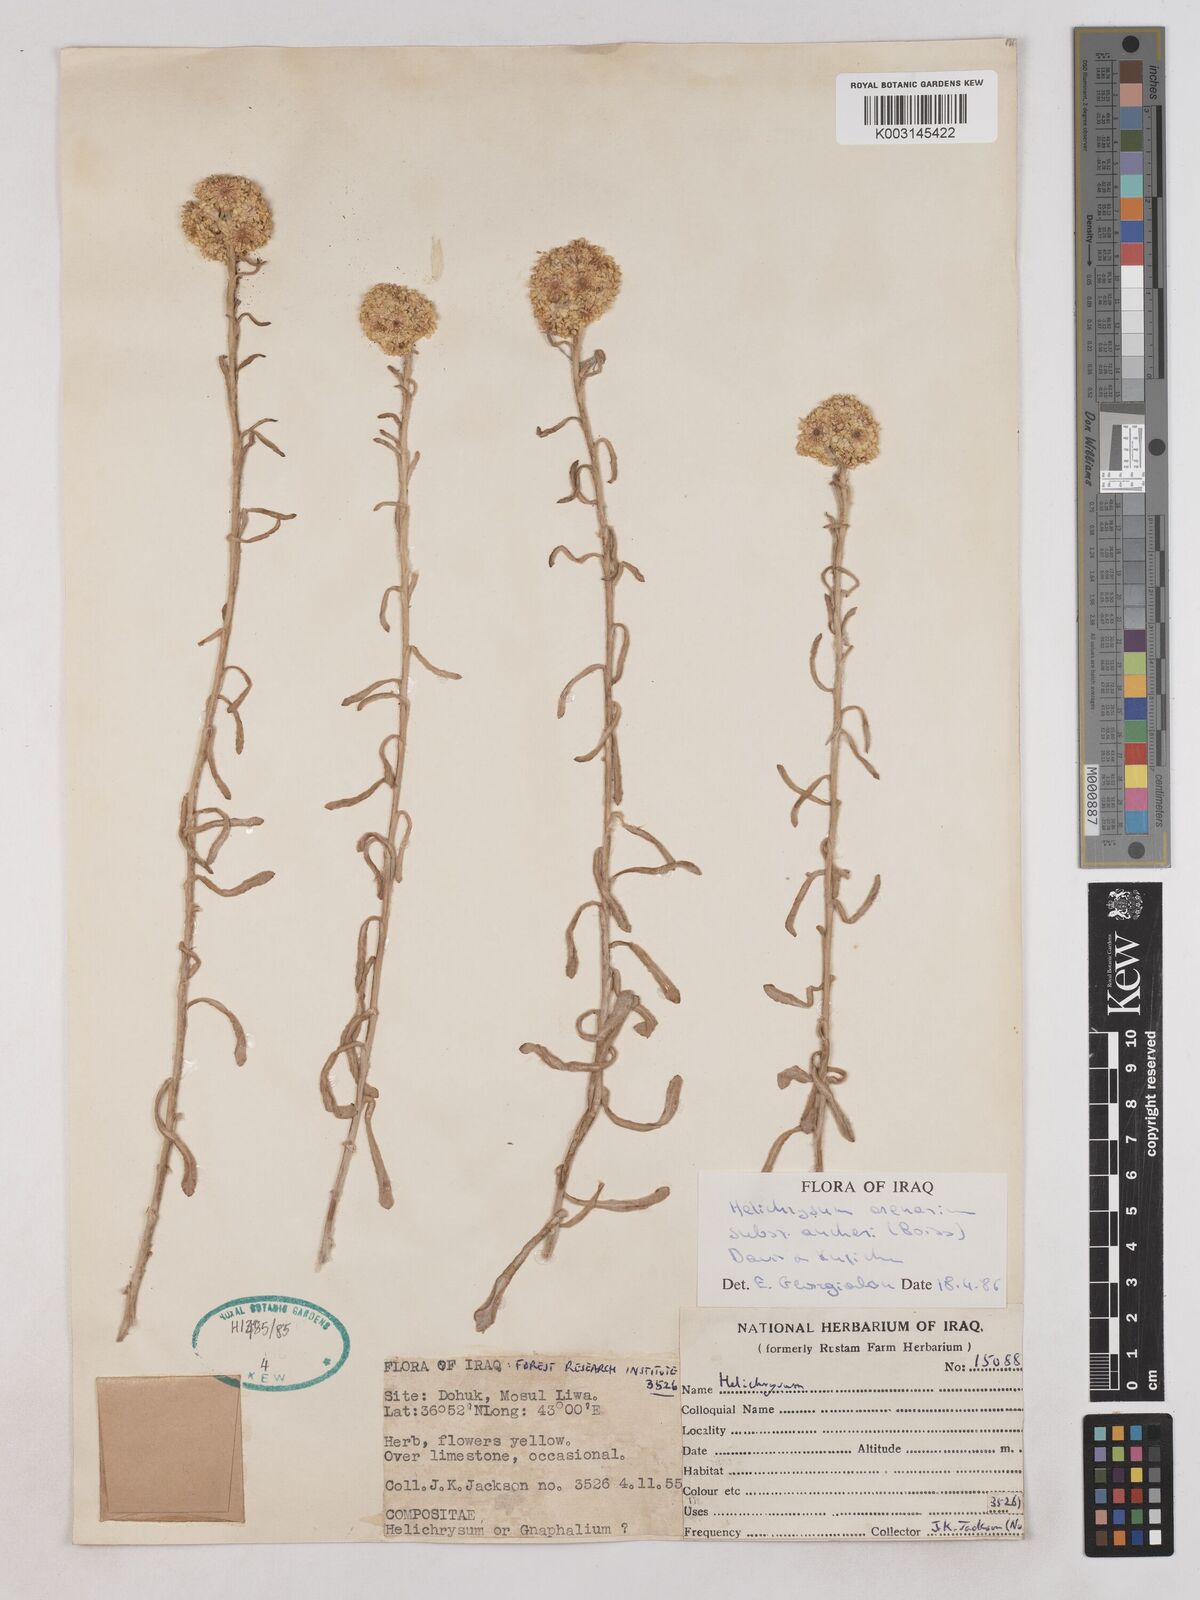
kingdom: Plantae
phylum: Tracheophyta
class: Magnoliopsida
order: Asterales
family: Asteraceae
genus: Helichrysum
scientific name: Helichrysum arenarium
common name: Strawflower
